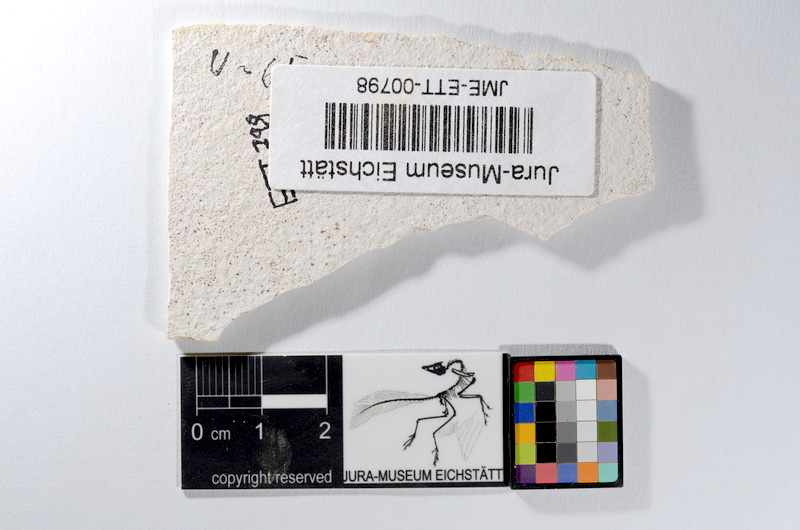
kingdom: Animalia
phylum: Chordata
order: Salmoniformes
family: Orthogonikleithridae
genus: Orthogonikleithrus
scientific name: Orthogonikleithrus hoelli
